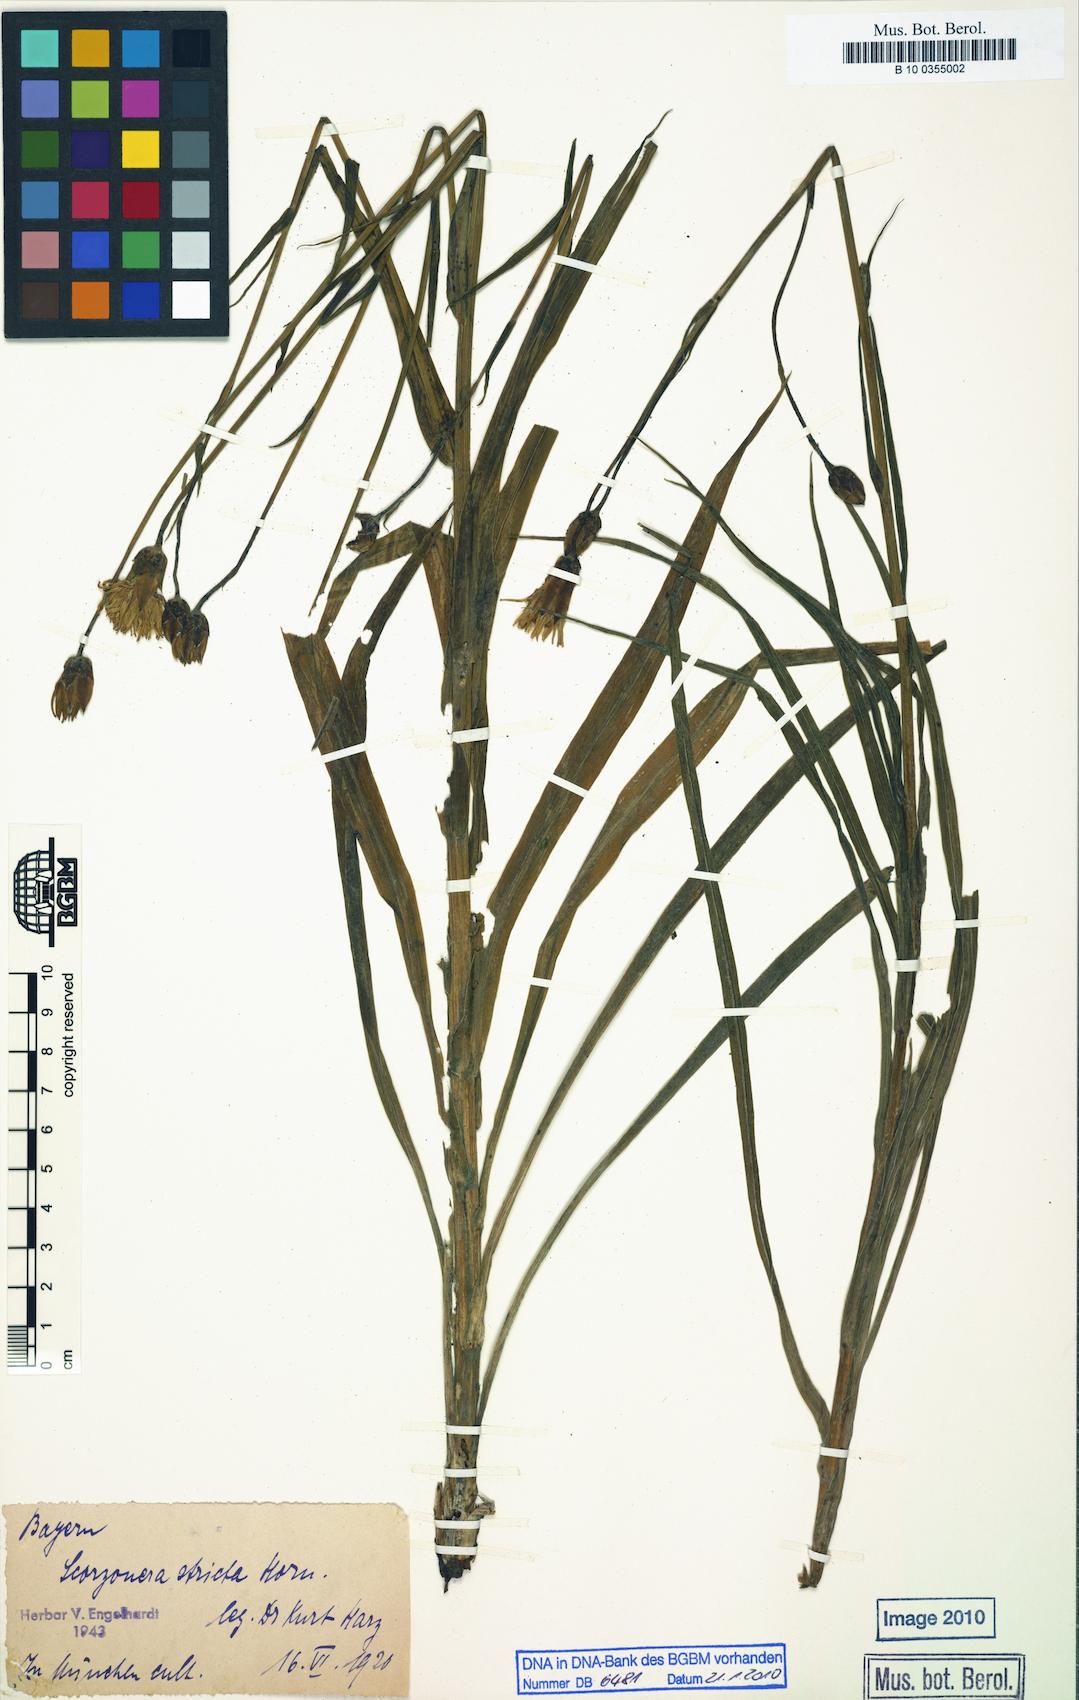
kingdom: Plantae
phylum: Tracheophyta
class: Magnoliopsida
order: Asterales
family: Asteraceae
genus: Pseudopodospermum
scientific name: Pseudopodospermum tauricum
